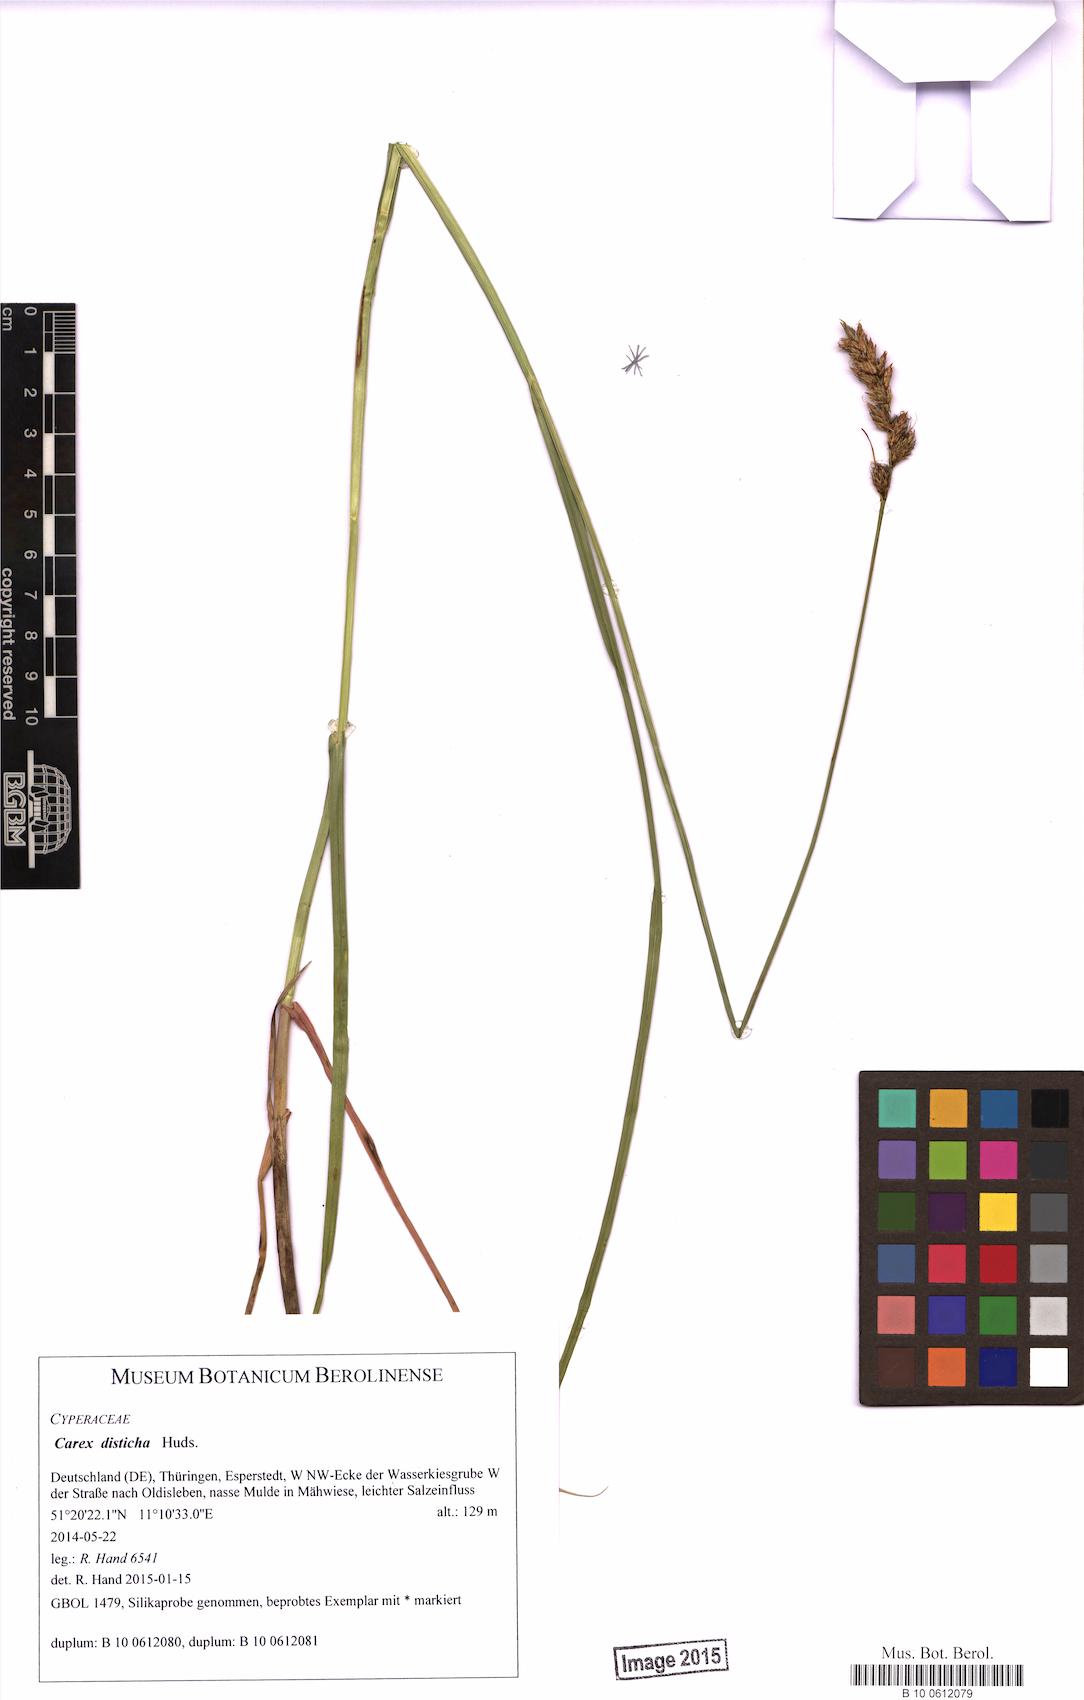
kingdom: Plantae
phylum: Tracheophyta
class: Liliopsida
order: Poales
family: Cyperaceae
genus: Carex
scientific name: Carex disticha
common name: Brown sedge
